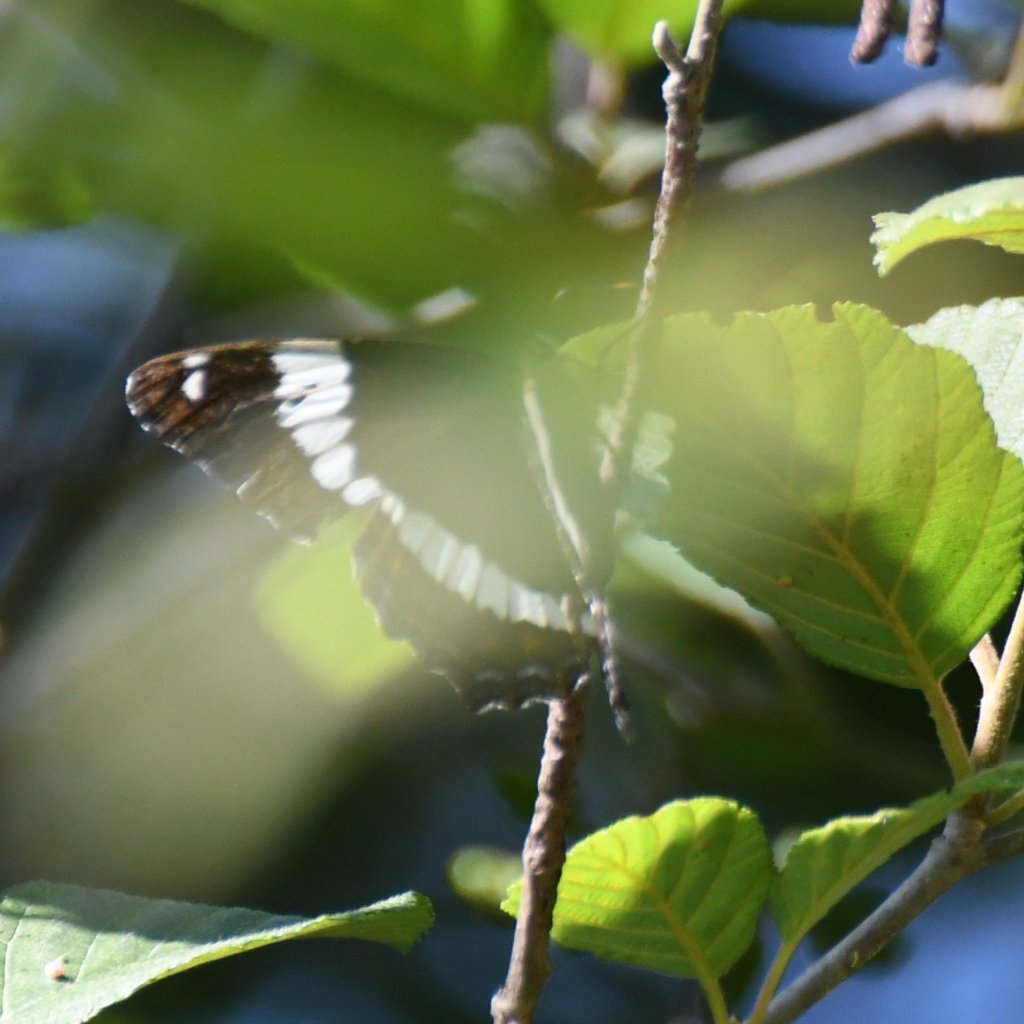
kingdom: Animalia
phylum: Arthropoda
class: Insecta
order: Lepidoptera
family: Nymphalidae
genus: Limenitis
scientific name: Limenitis arthemis
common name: Red-spotted Admiral
